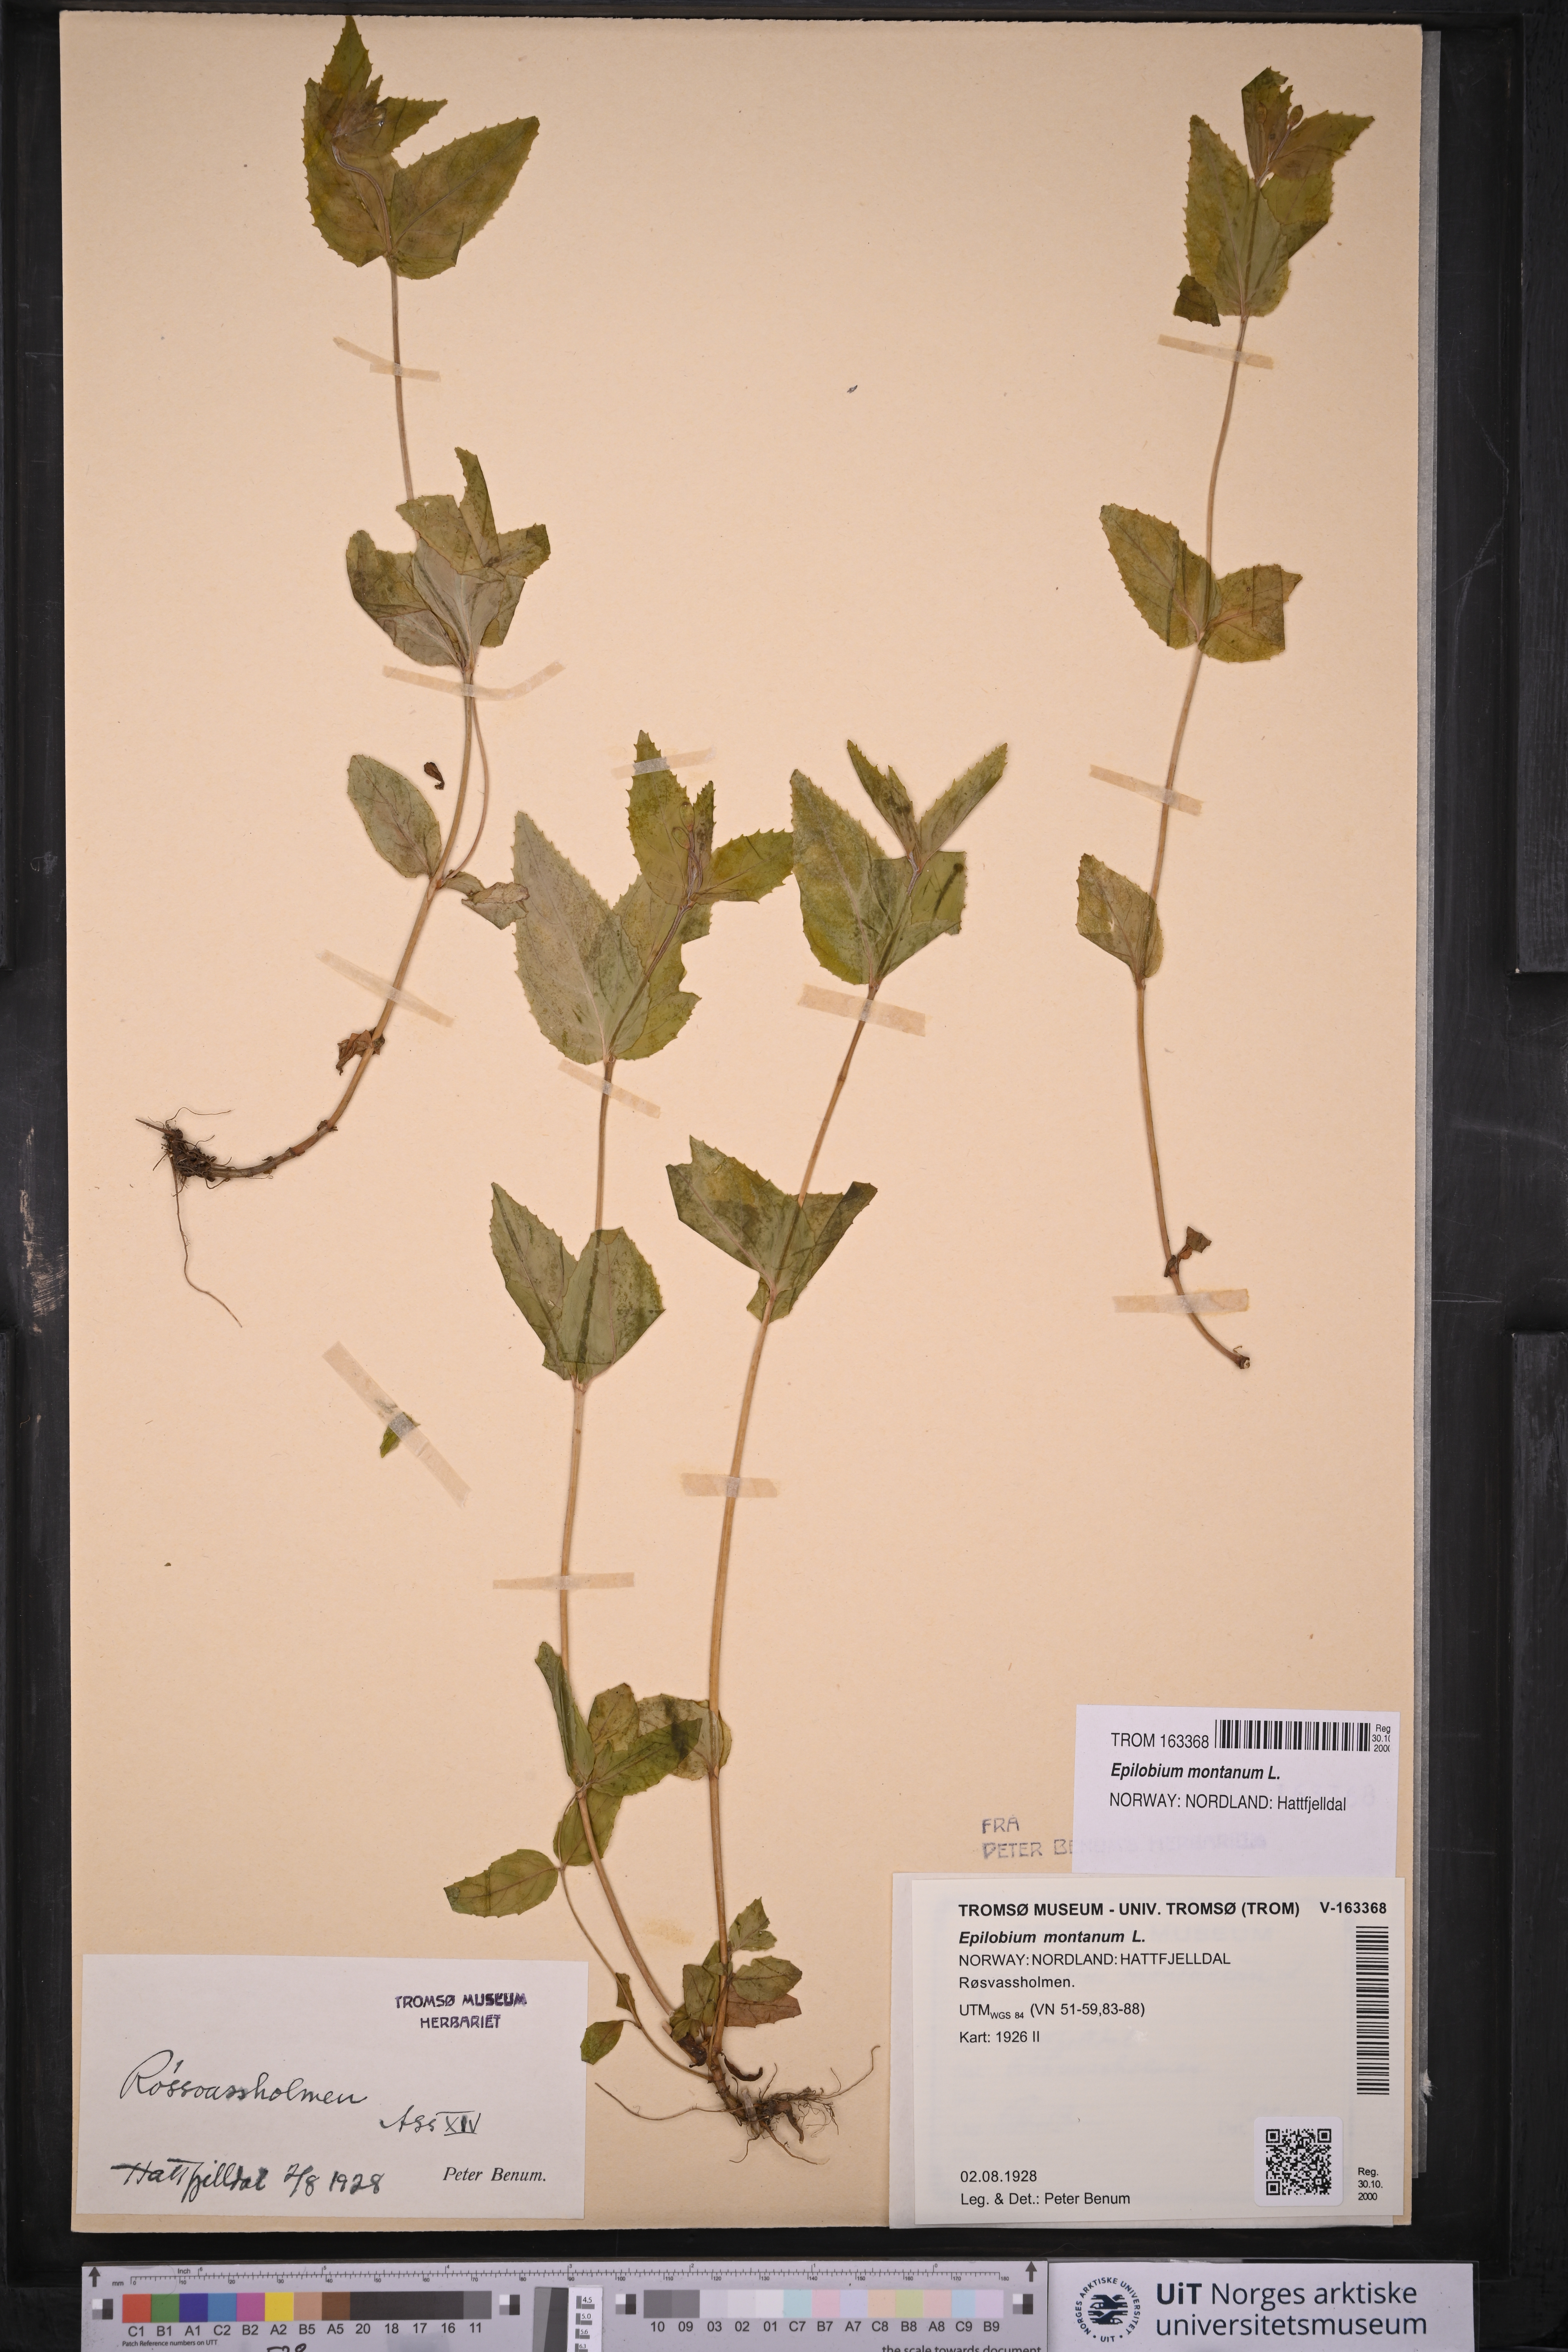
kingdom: Plantae
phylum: Tracheophyta
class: Magnoliopsida
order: Myrtales
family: Onagraceae
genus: Epilobium
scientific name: Epilobium montanum
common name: Broad-leaved willowherb
